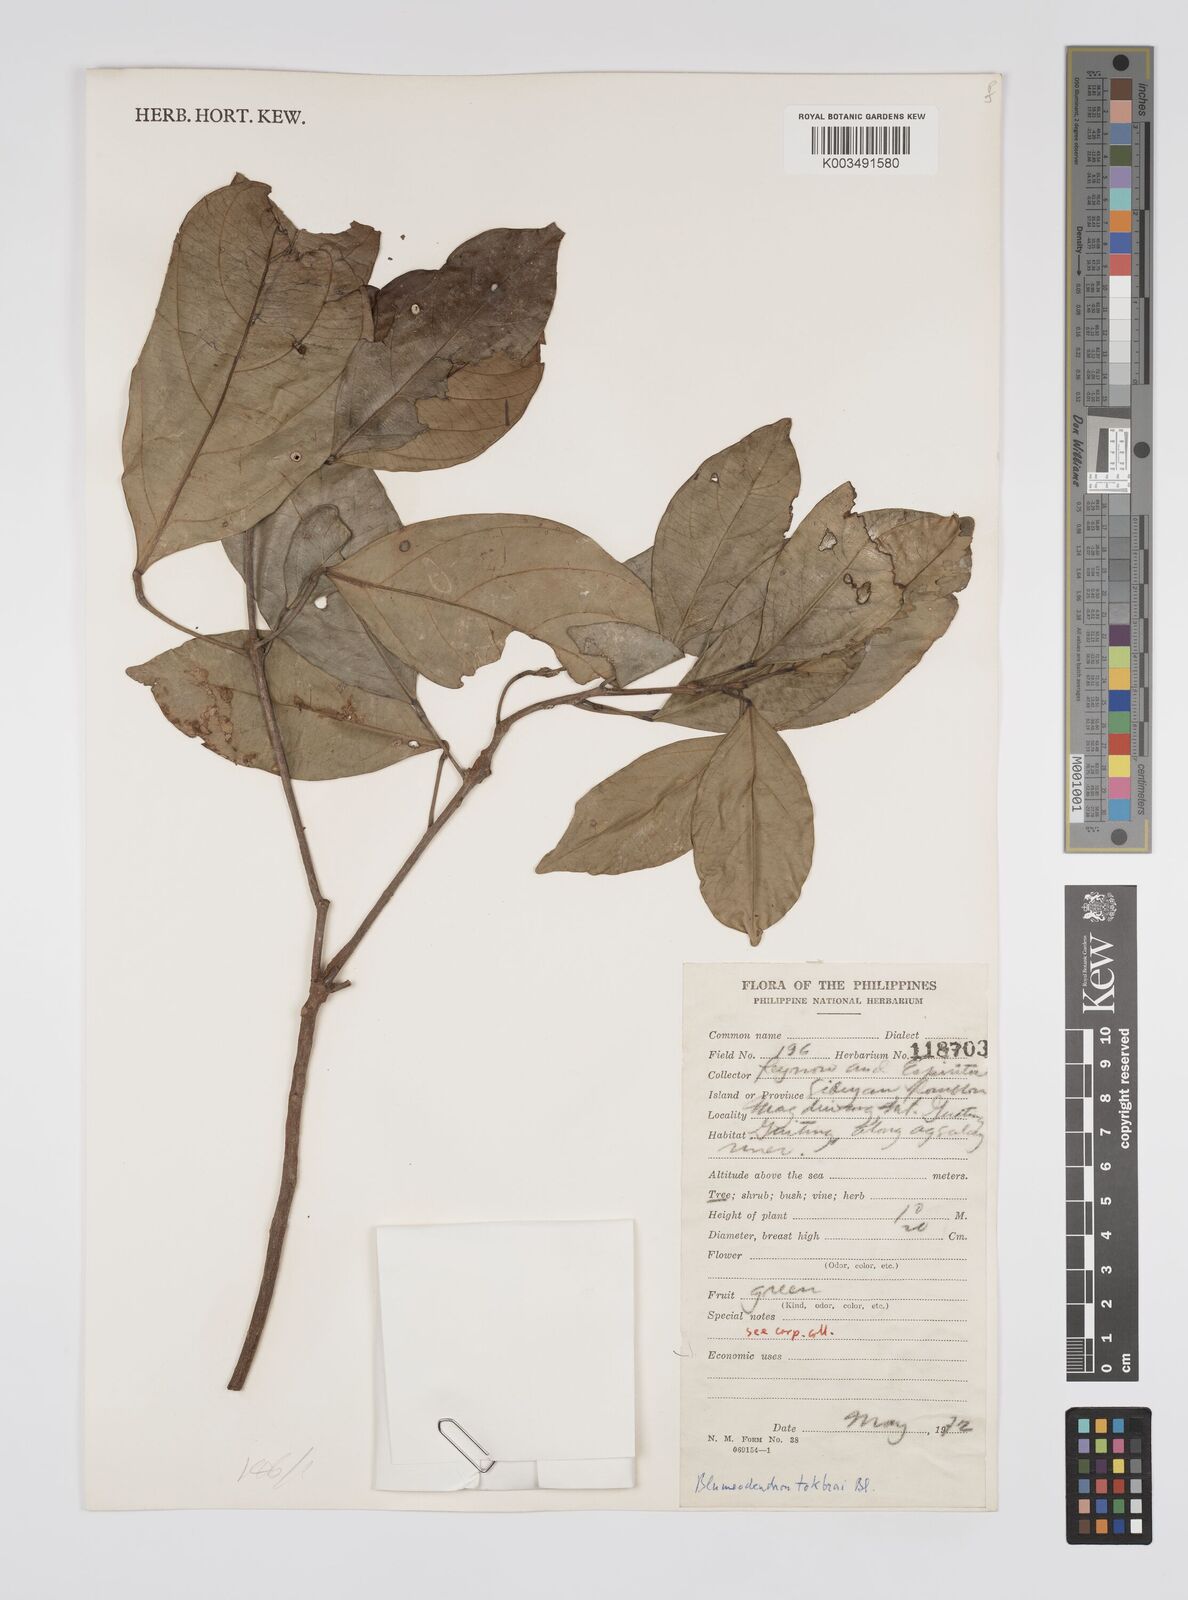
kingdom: Plantae
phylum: Tracheophyta
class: Magnoliopsida
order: Malpighiales
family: Euphorbiaceae
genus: Blumeodendron
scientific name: Blumeodendron tokbrai
